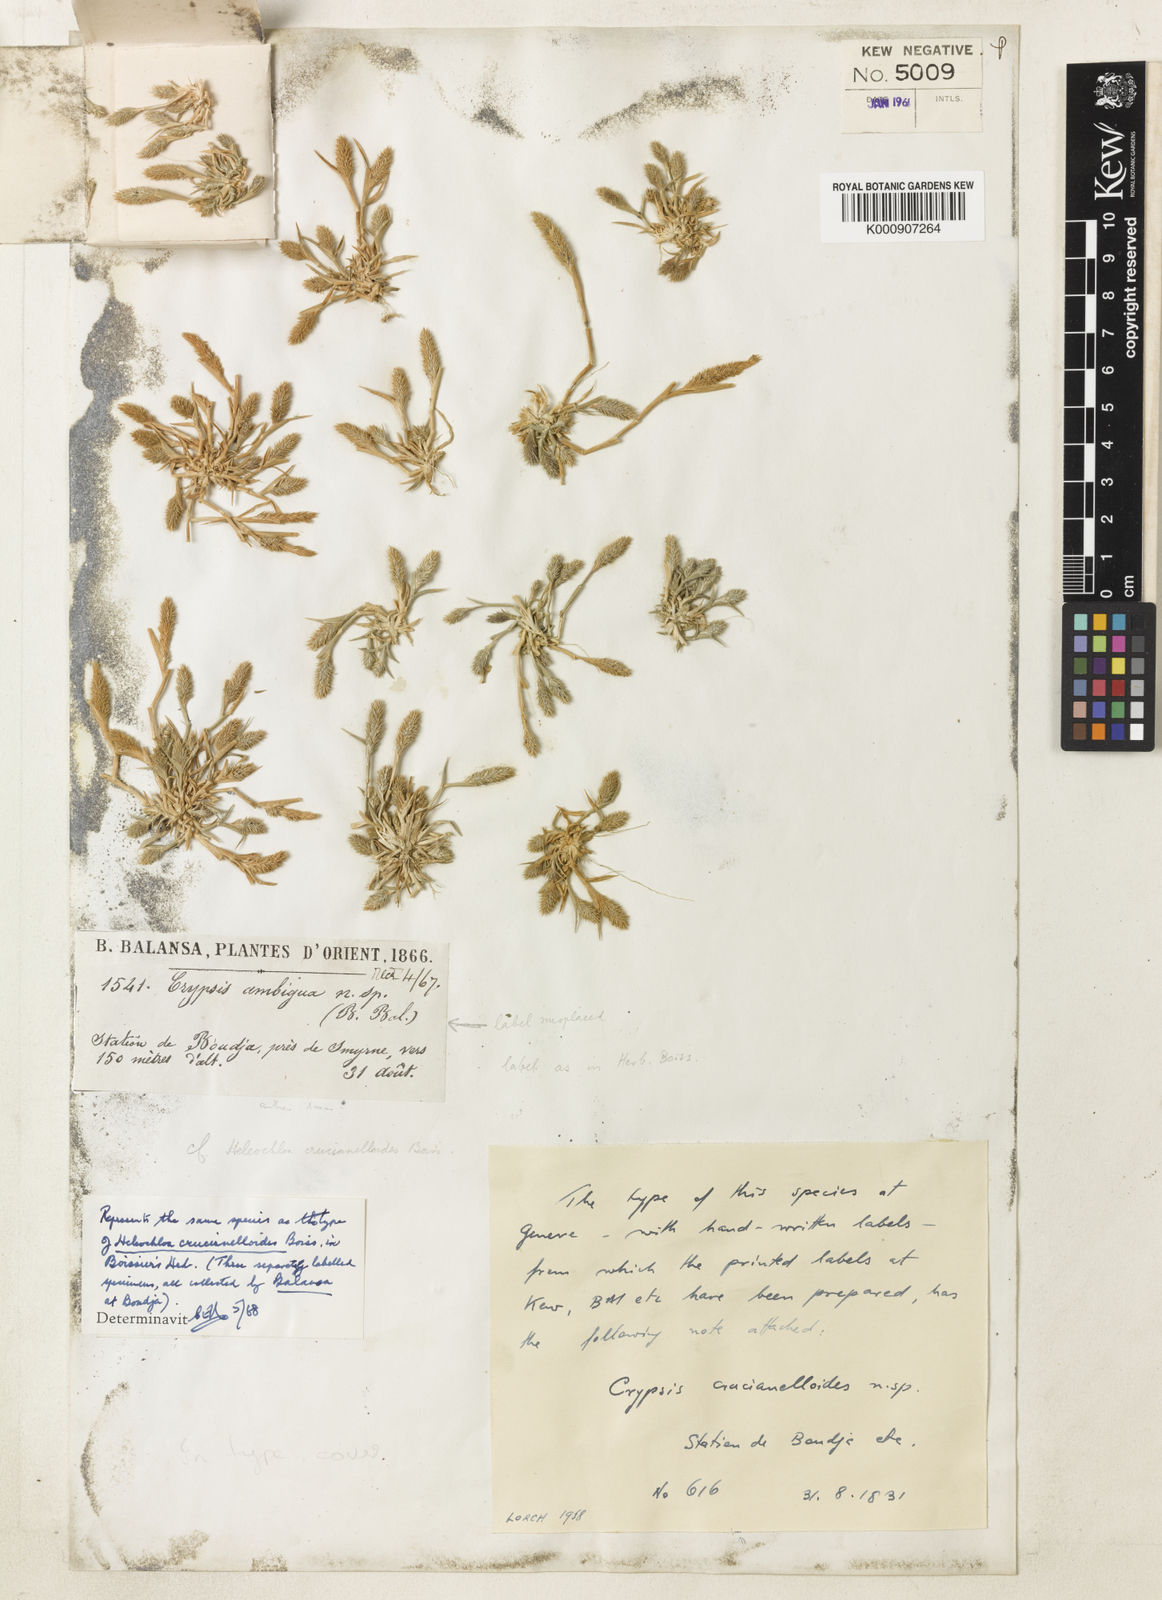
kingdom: Plantae
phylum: Tracheophyta
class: Liliopsida
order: Poales
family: Poaceae
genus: Sporobolus
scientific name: Sporobolus borszczowii
